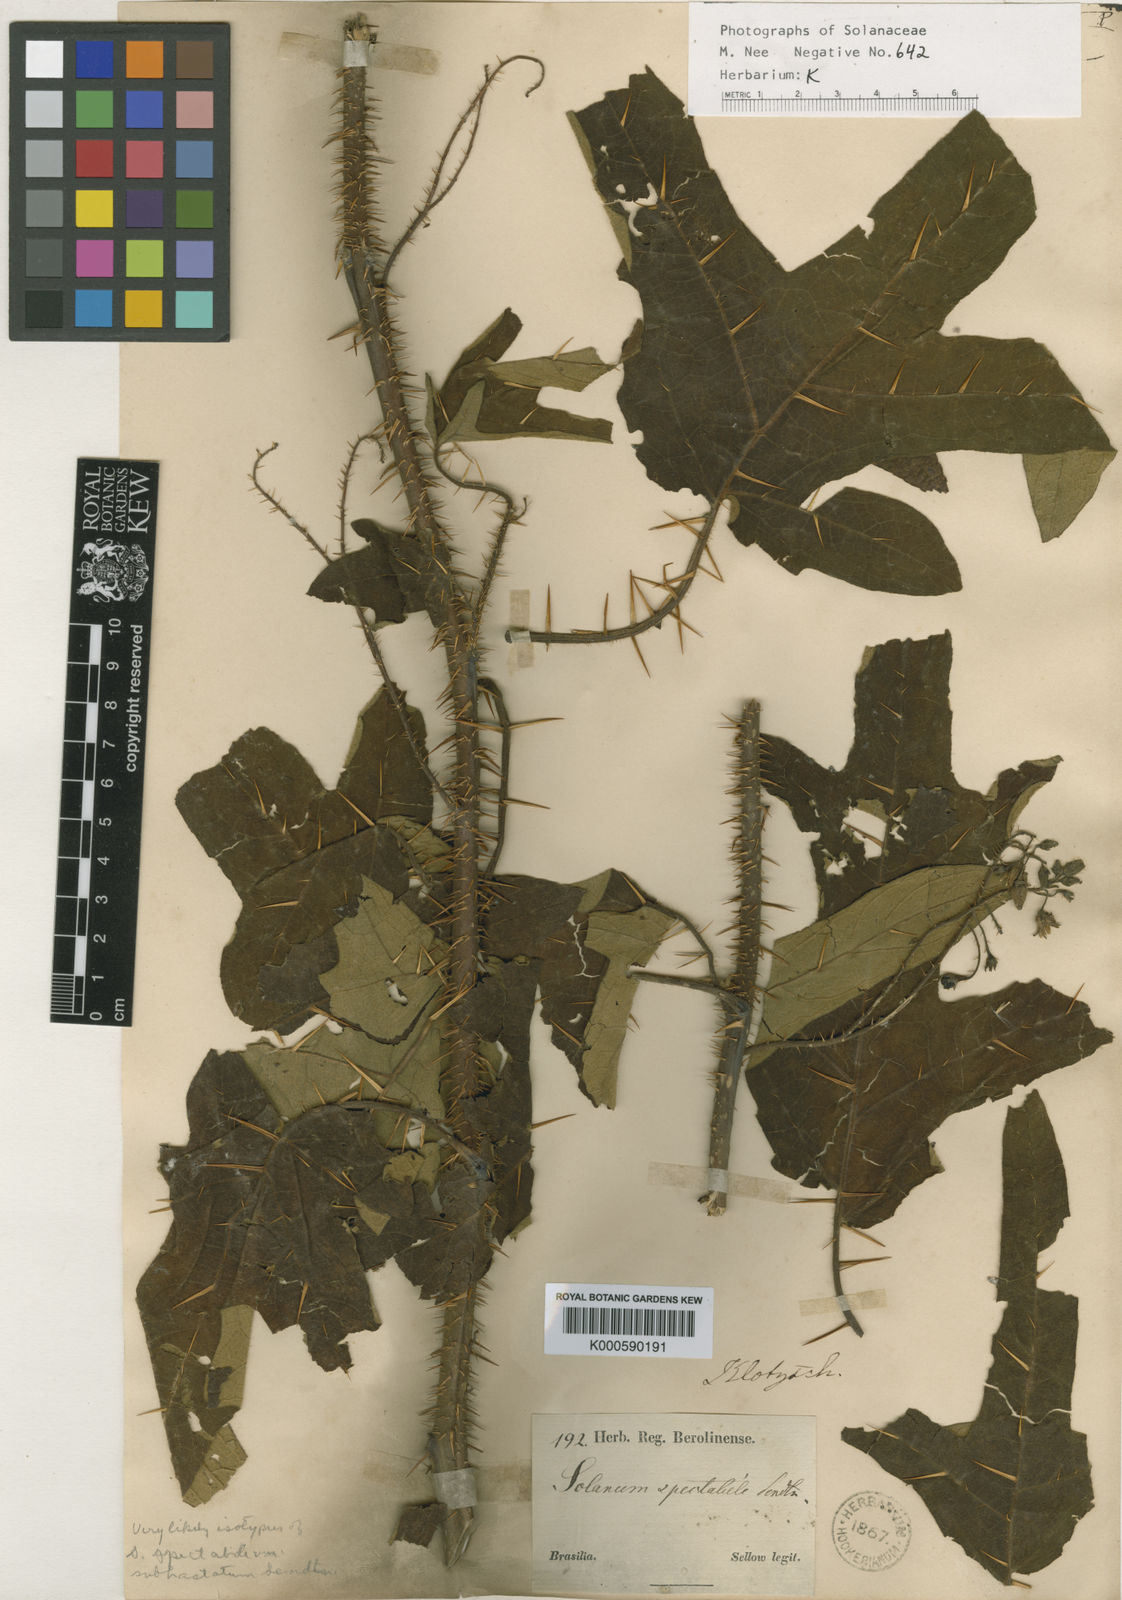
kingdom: Plantae
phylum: Tracheophyta
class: Magnoliopsida
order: Solanales
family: Solanaceae
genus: Solanum
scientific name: Solanum affine
